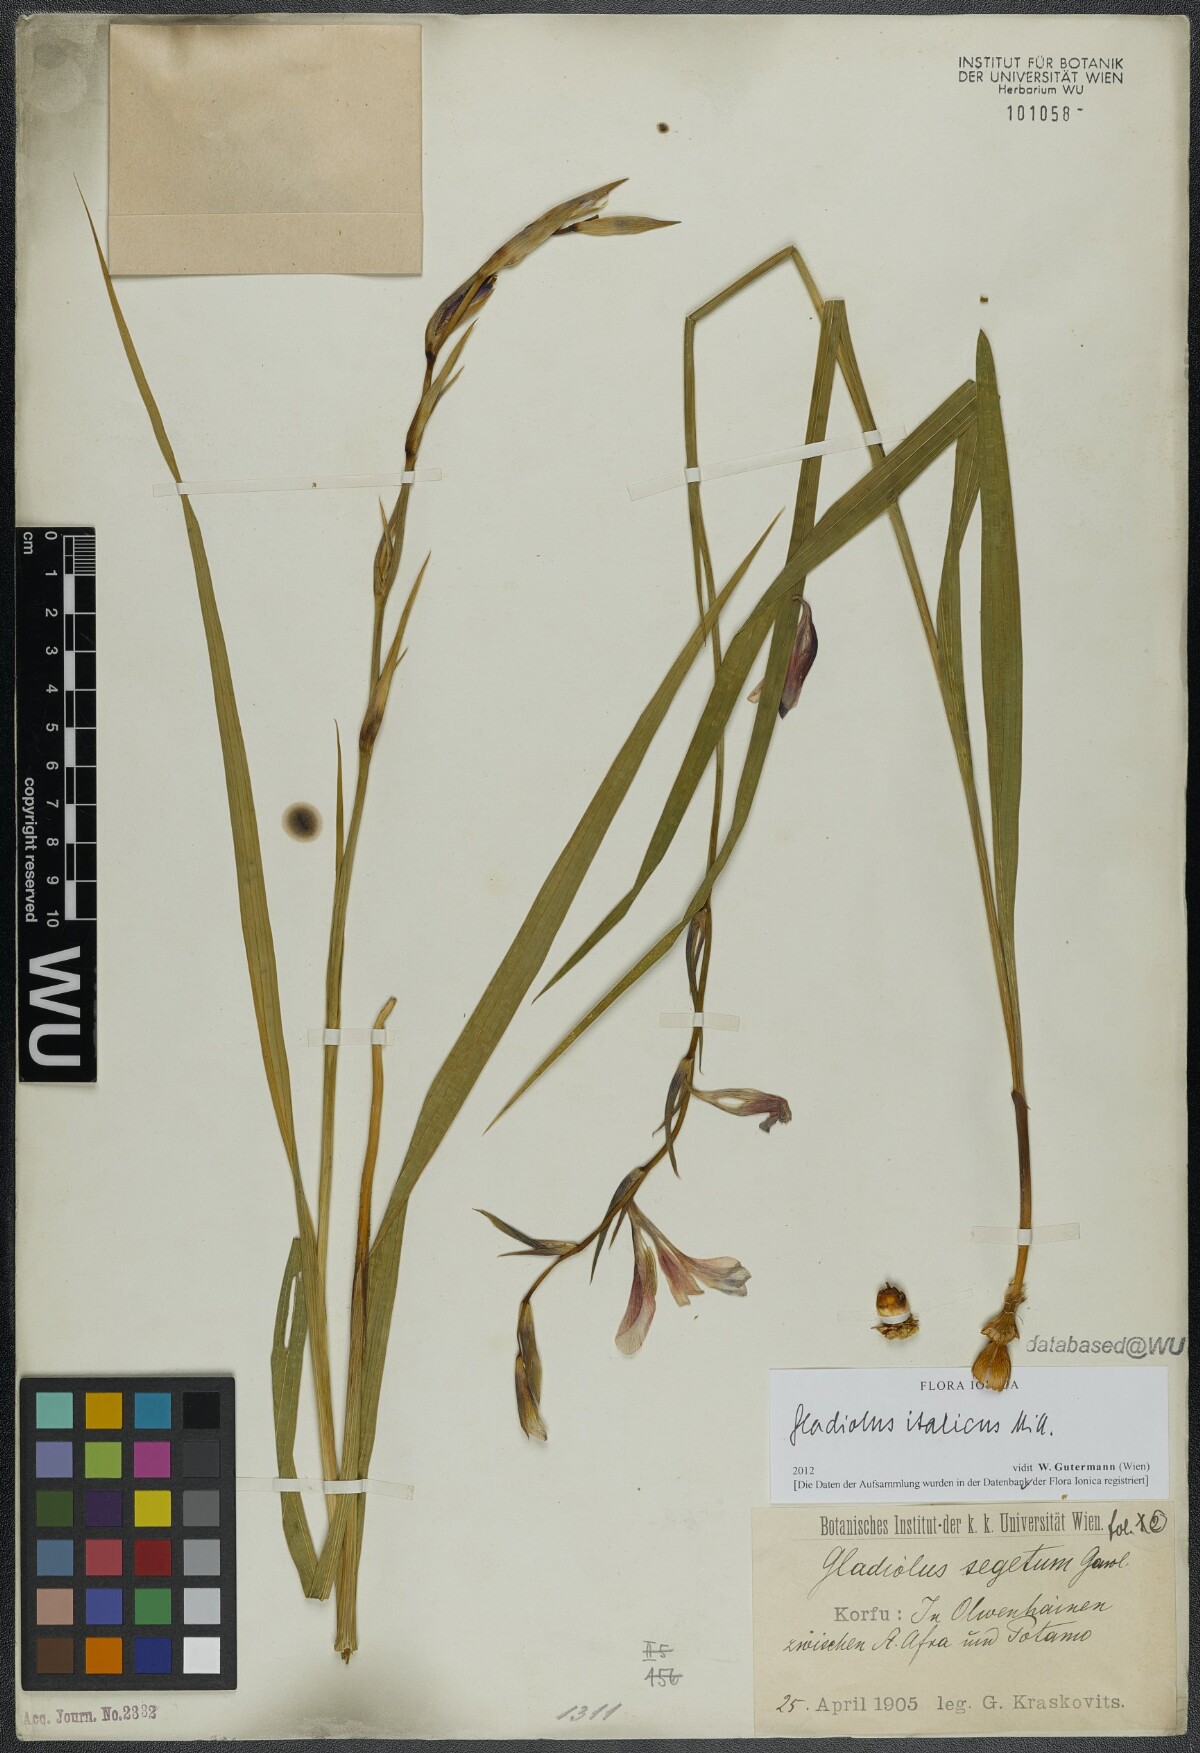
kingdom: Plantae
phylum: Tracheophyta
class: Liliopsida
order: Asparagales
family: Iridaceae
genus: Gladiolus
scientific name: Gladiolus italicus
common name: Field gladiolus
